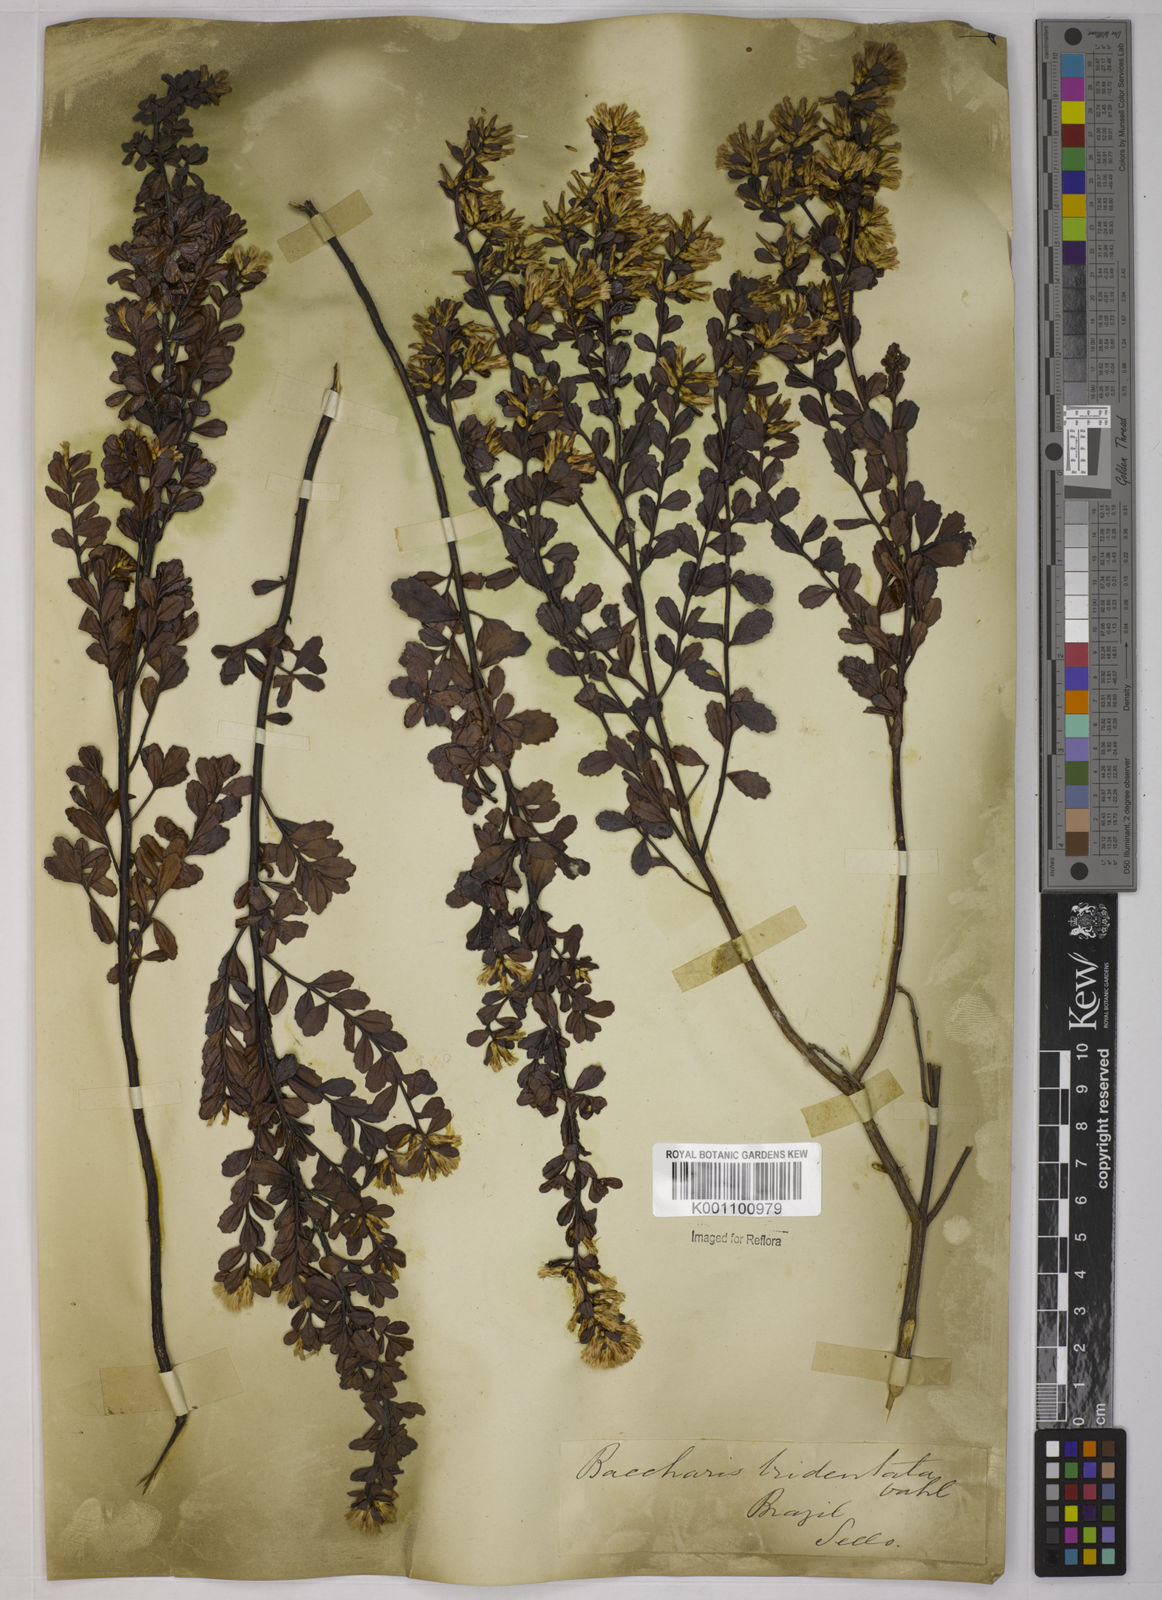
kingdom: Plantae
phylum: Tracheophyta
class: Magnoliopsida
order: Asterales
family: Asteraceae
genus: Baccharis
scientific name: Baccharis tridentata
